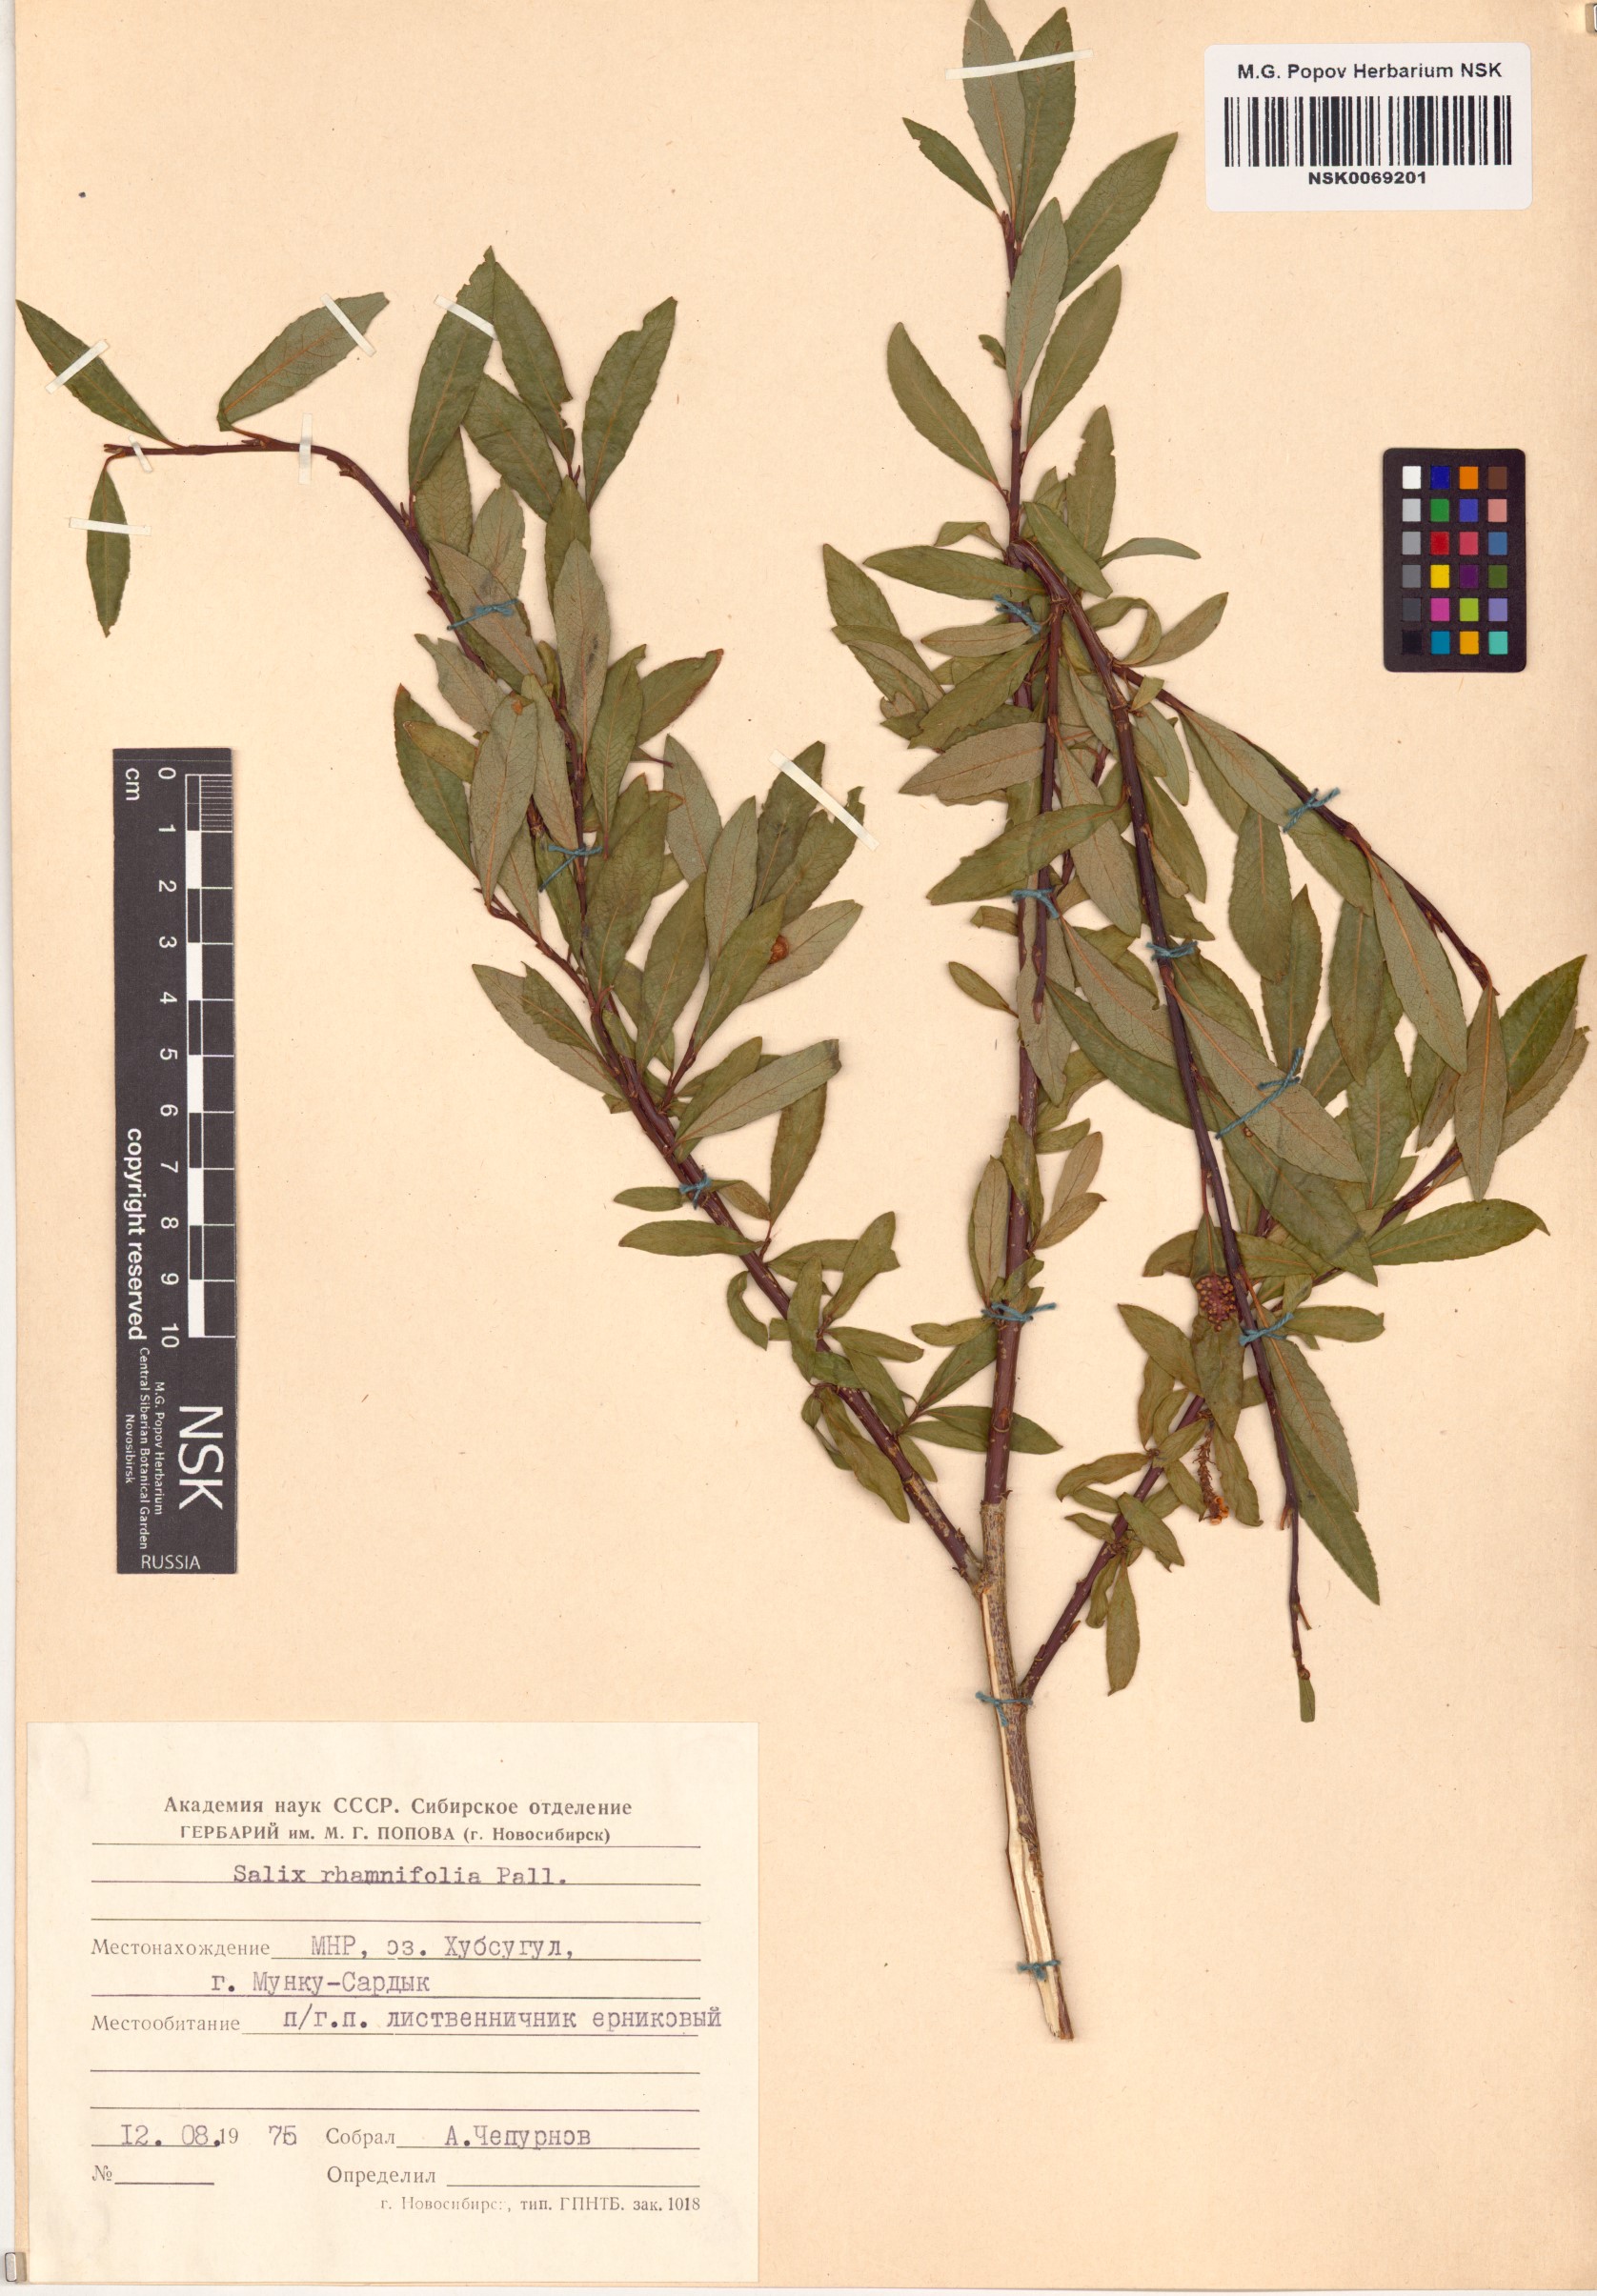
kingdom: Plantae
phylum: Tracheophyta
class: Magnoliopsida
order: Malpighiales
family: Salicaceae
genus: Salix
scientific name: Salix rhamnifolia
